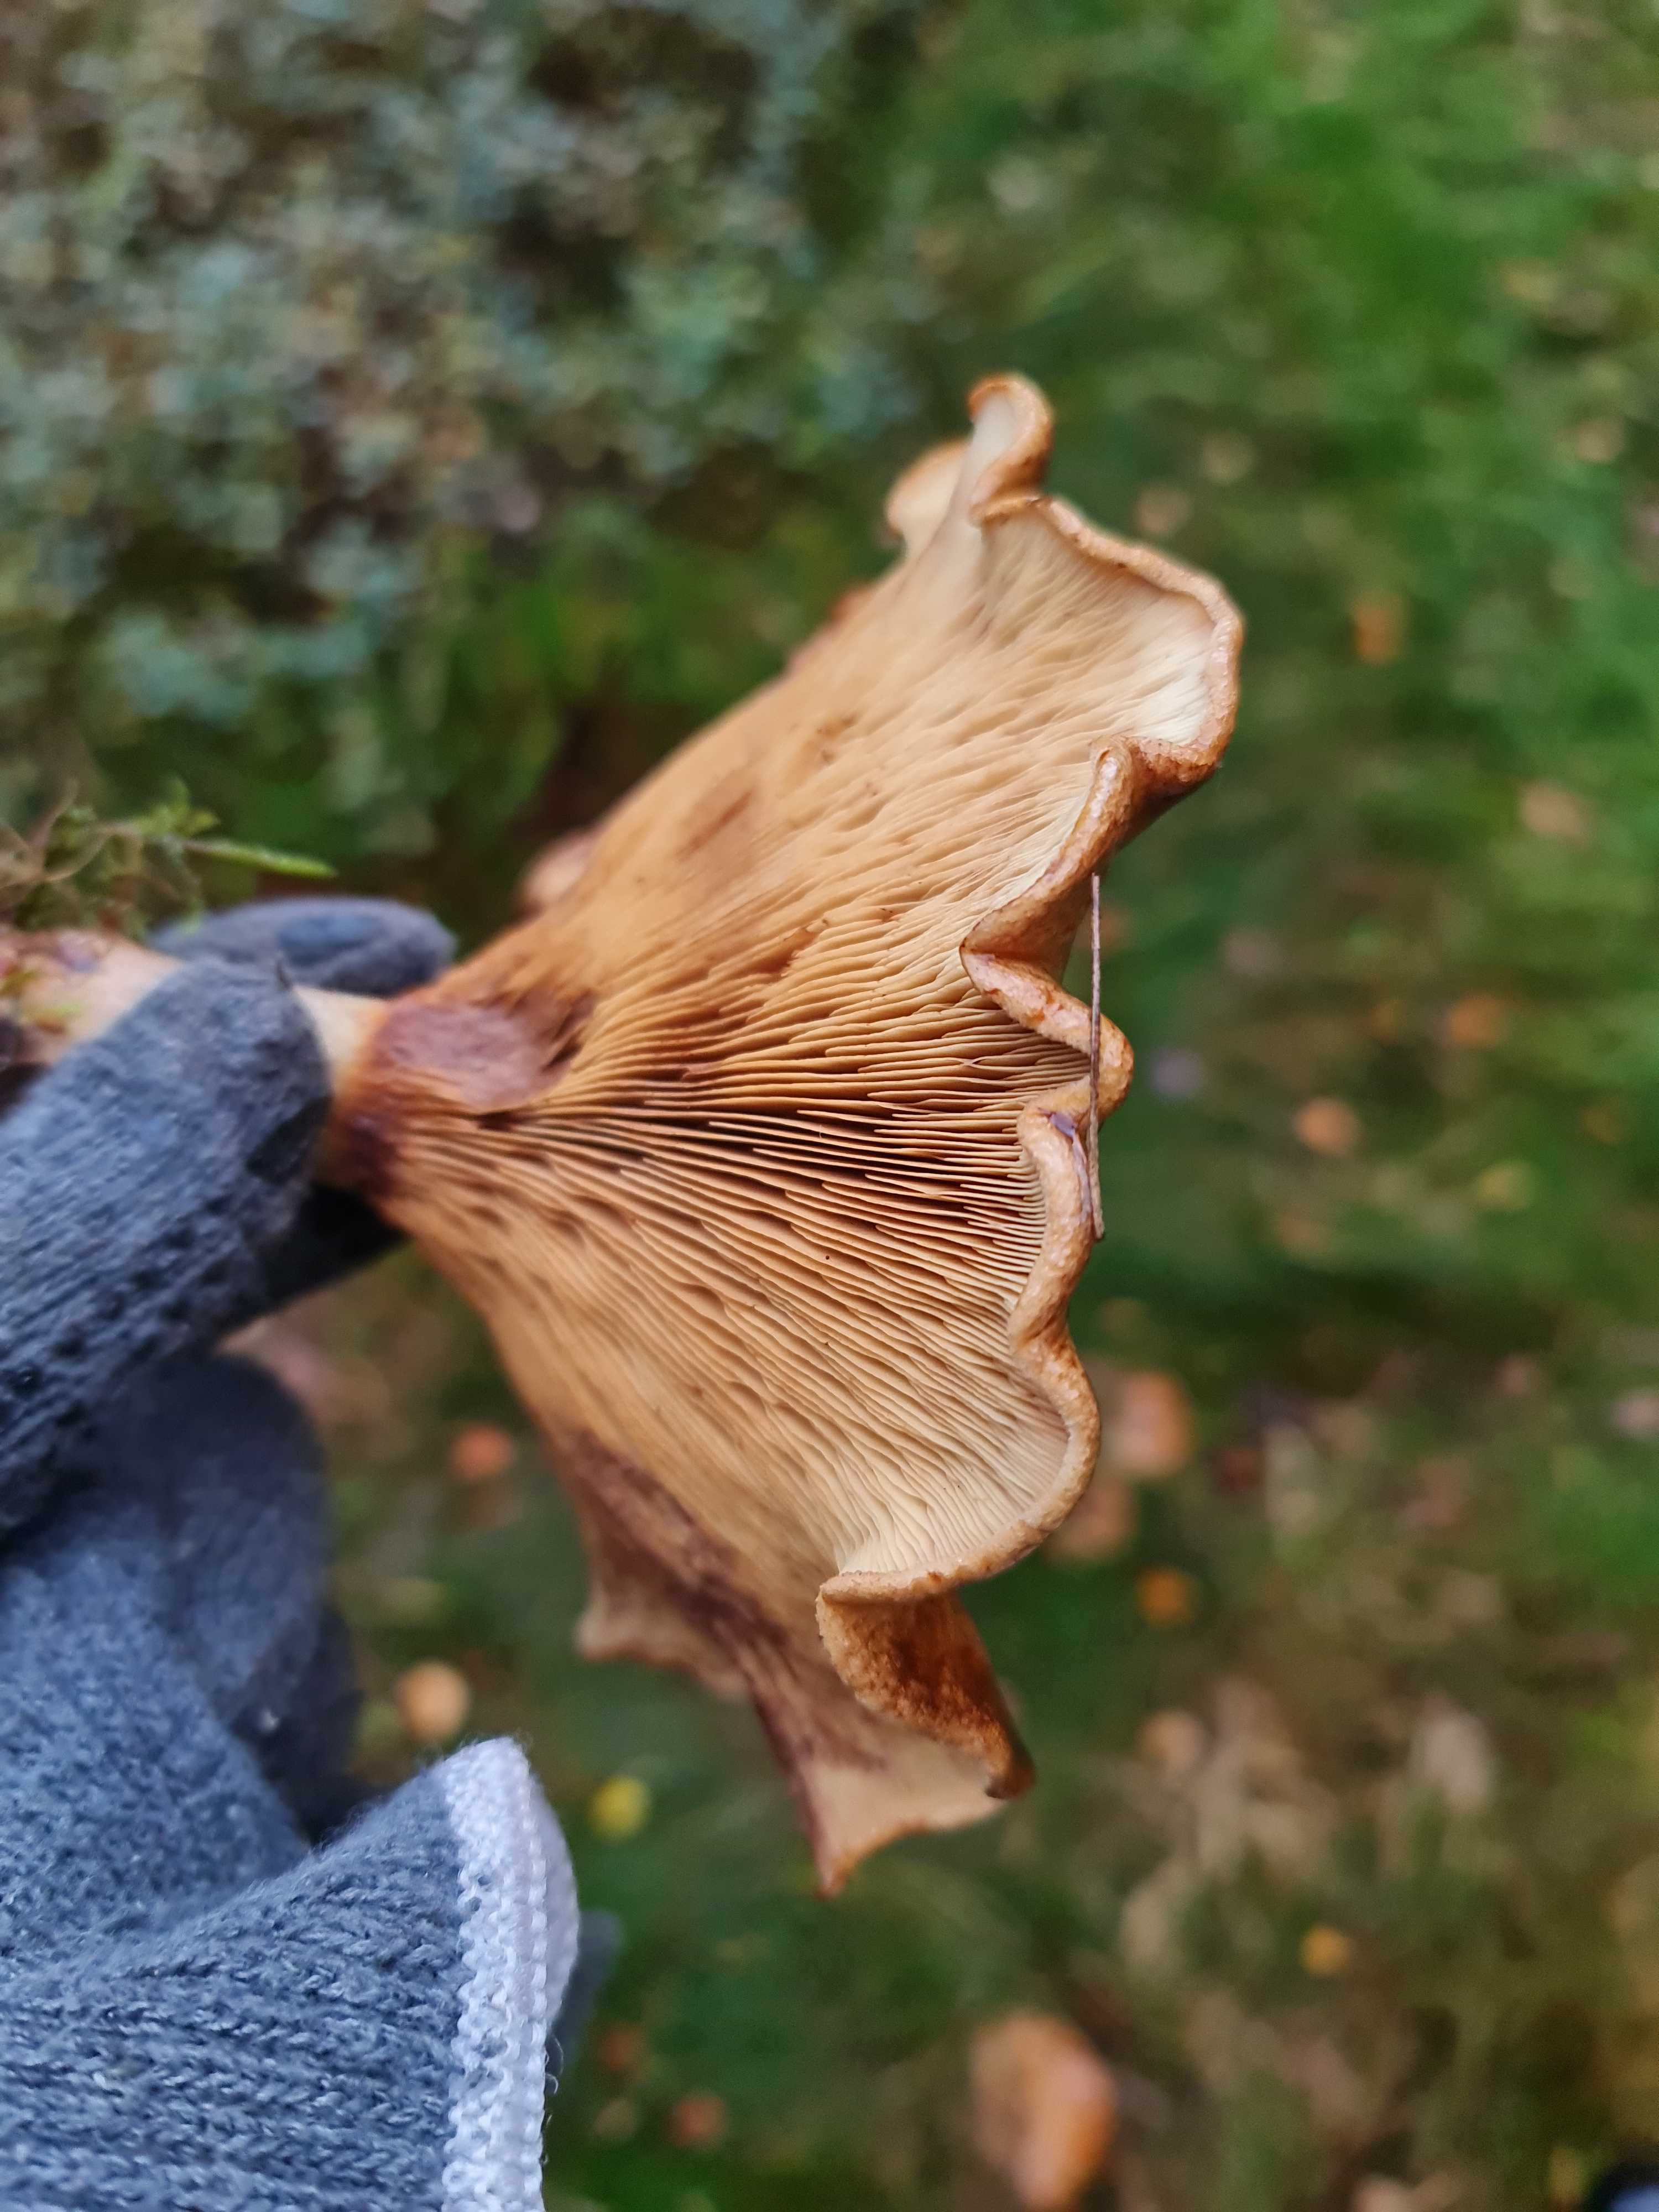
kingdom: Fungi
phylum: Basidiomycota
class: Agaricomycetes
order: Boletales
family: Paxillaceae
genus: Paxillus
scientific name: Paxillus involutus
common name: almindelig netbladhat
